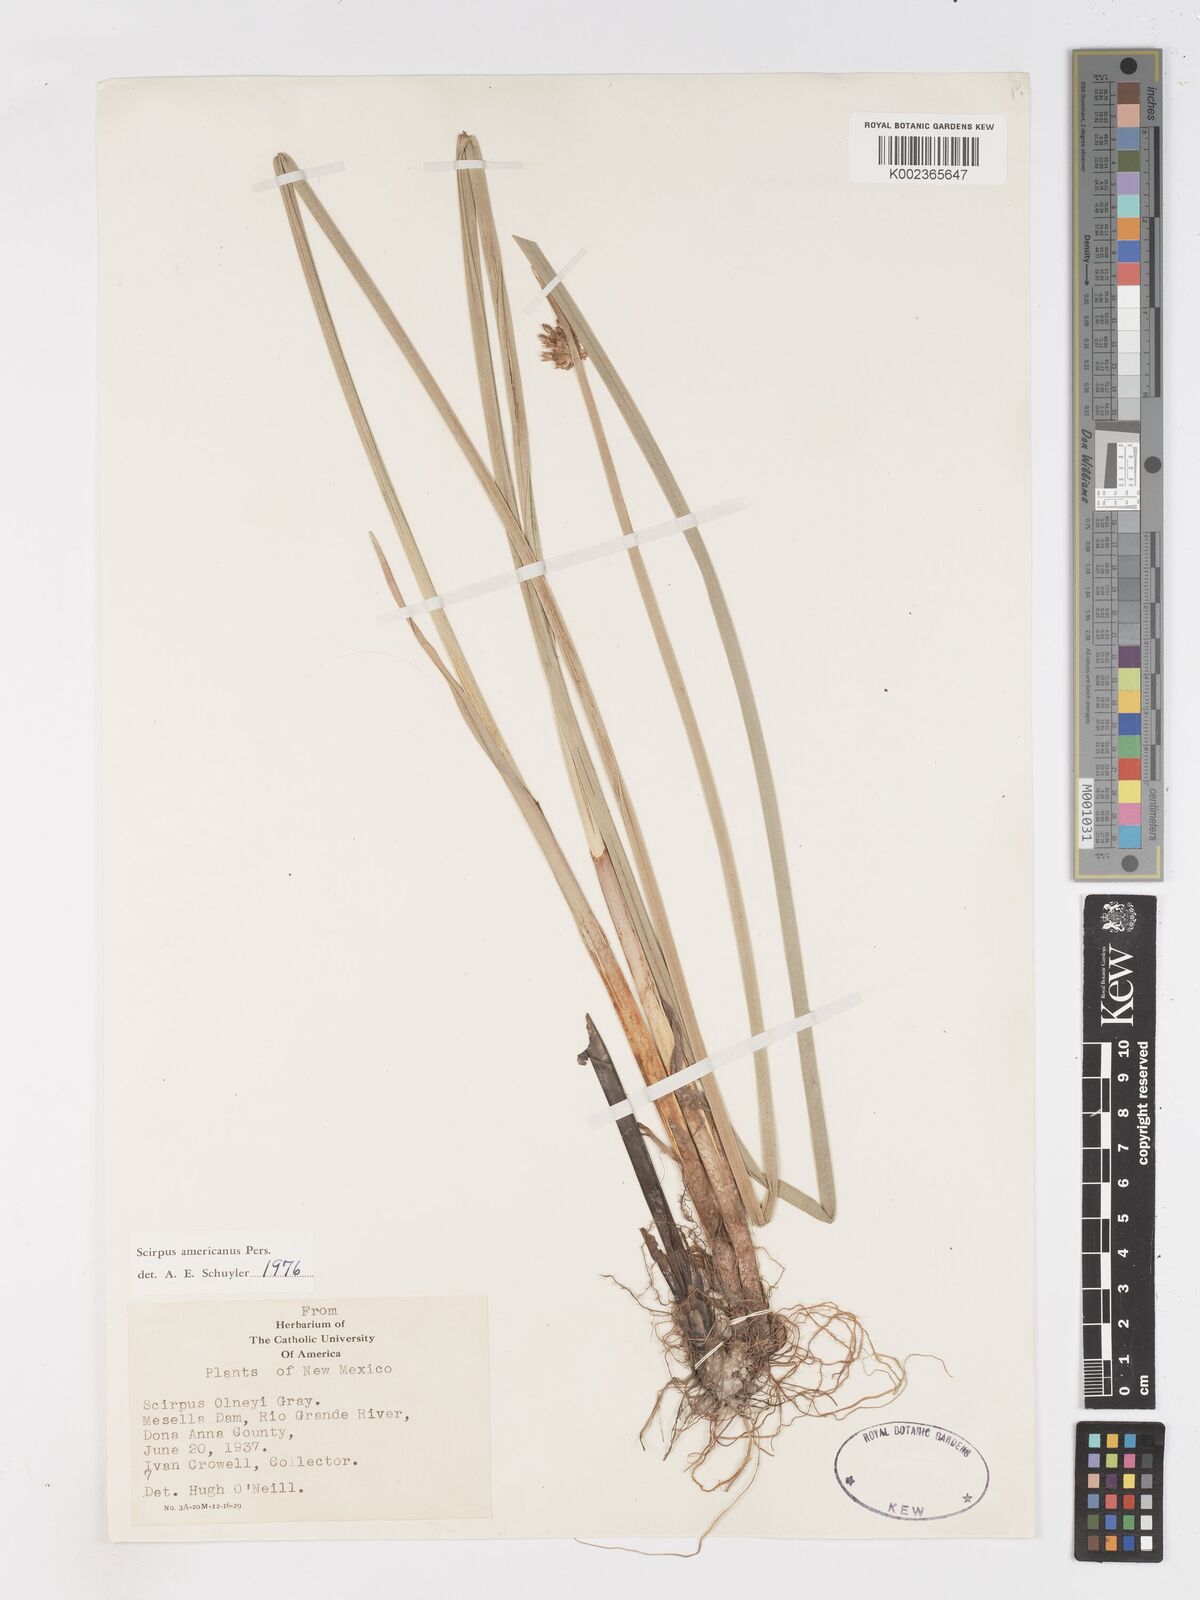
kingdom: Plantae
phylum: Tracheophyta
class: Liliopsida
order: Poales
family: Cyperaceae
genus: Schoenoplectus
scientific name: Schoenoplectus americanus
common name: American three-square bulrush
